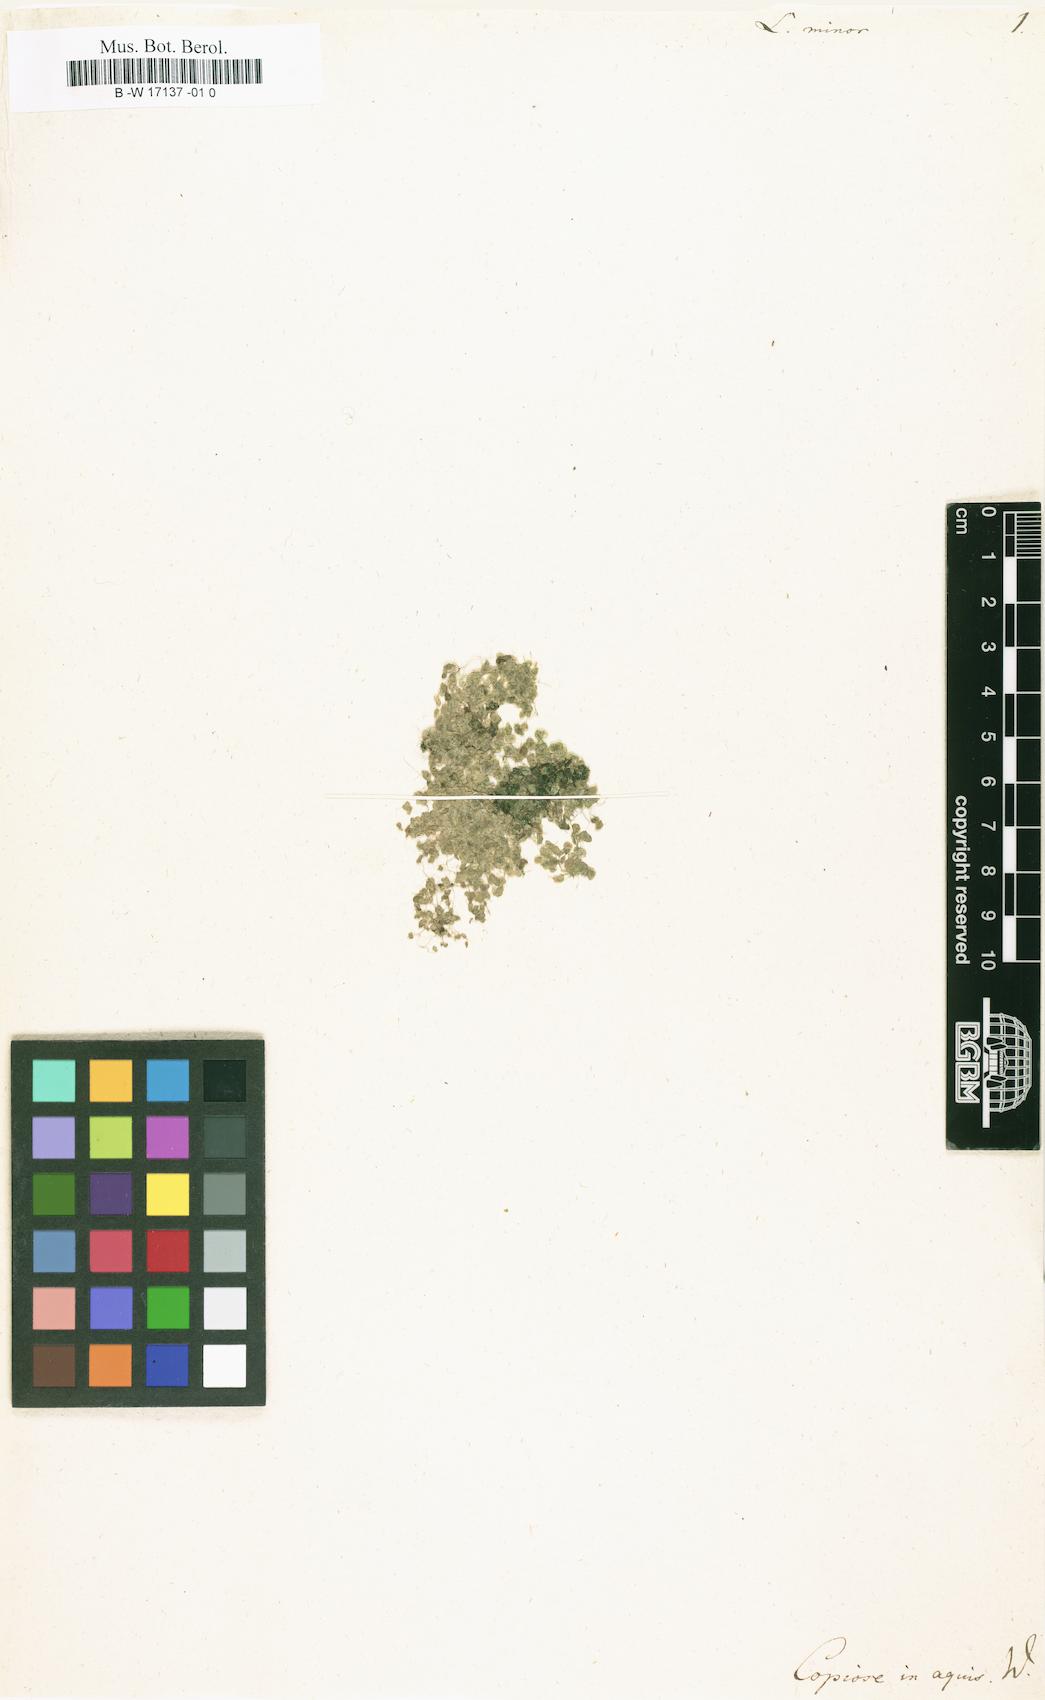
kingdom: Plantae
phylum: Tracheophyta
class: Liliopsida
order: Alismatales
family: Araceae
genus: Lemna
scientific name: Lemna minor
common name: Common duckweed
